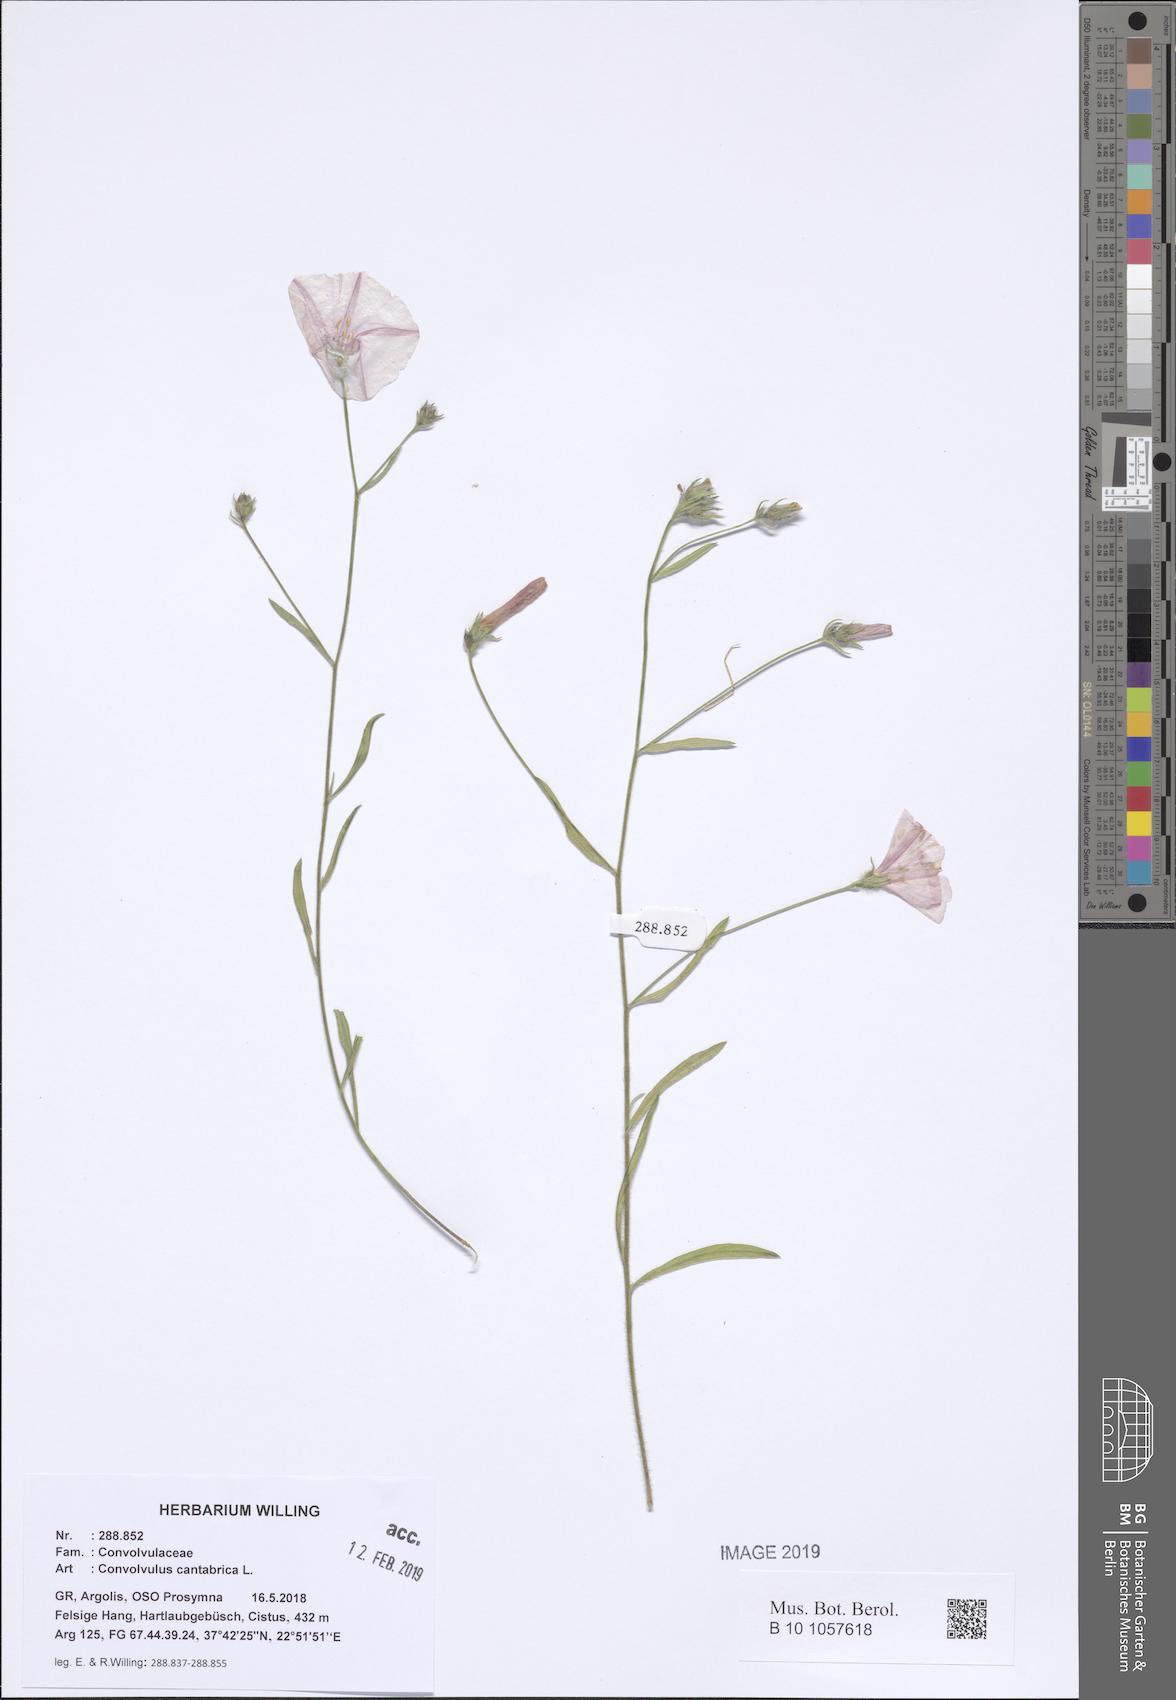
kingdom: Plantae
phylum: Tracheophyta
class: Magnoliopsida
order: Solanales
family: Convolvulaceae
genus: Convolvulus
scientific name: Convolvulus cantabrica
